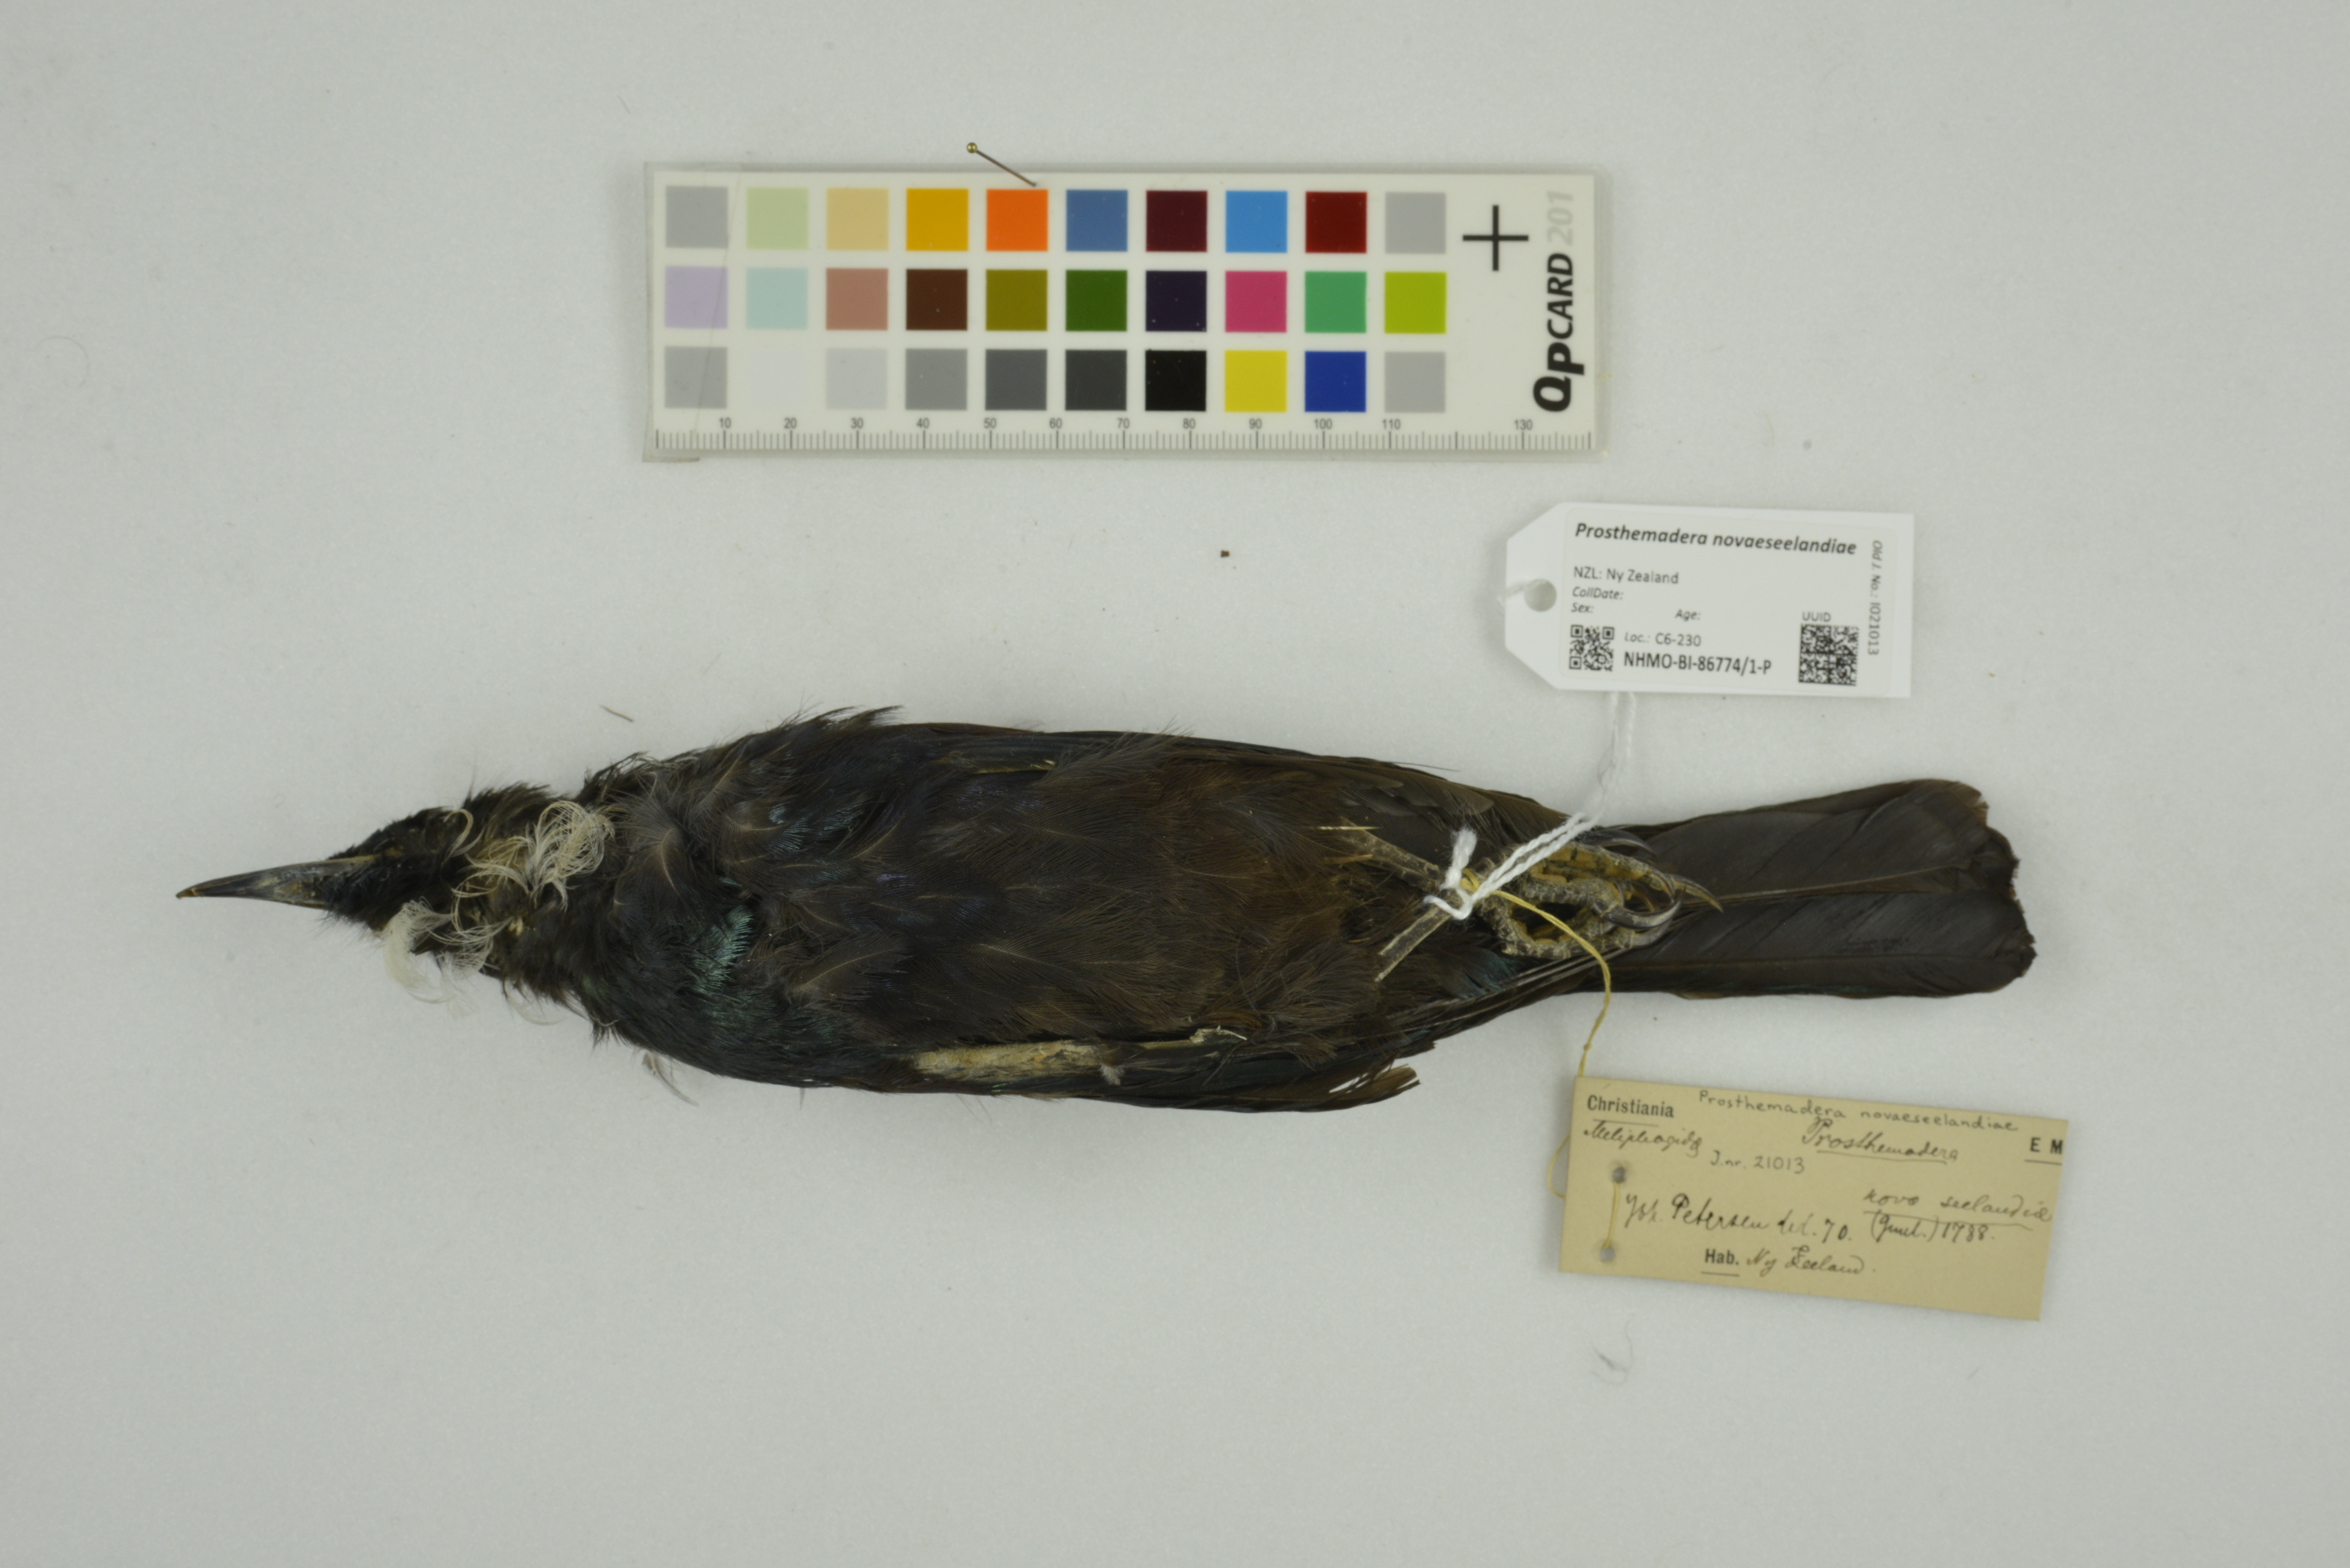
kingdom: Animalia
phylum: Chordata
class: Aves
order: Passeriformes
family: Meliphagidae
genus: Prosthemadera
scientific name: Prosthemadera novaeseelandiae
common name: Tui
